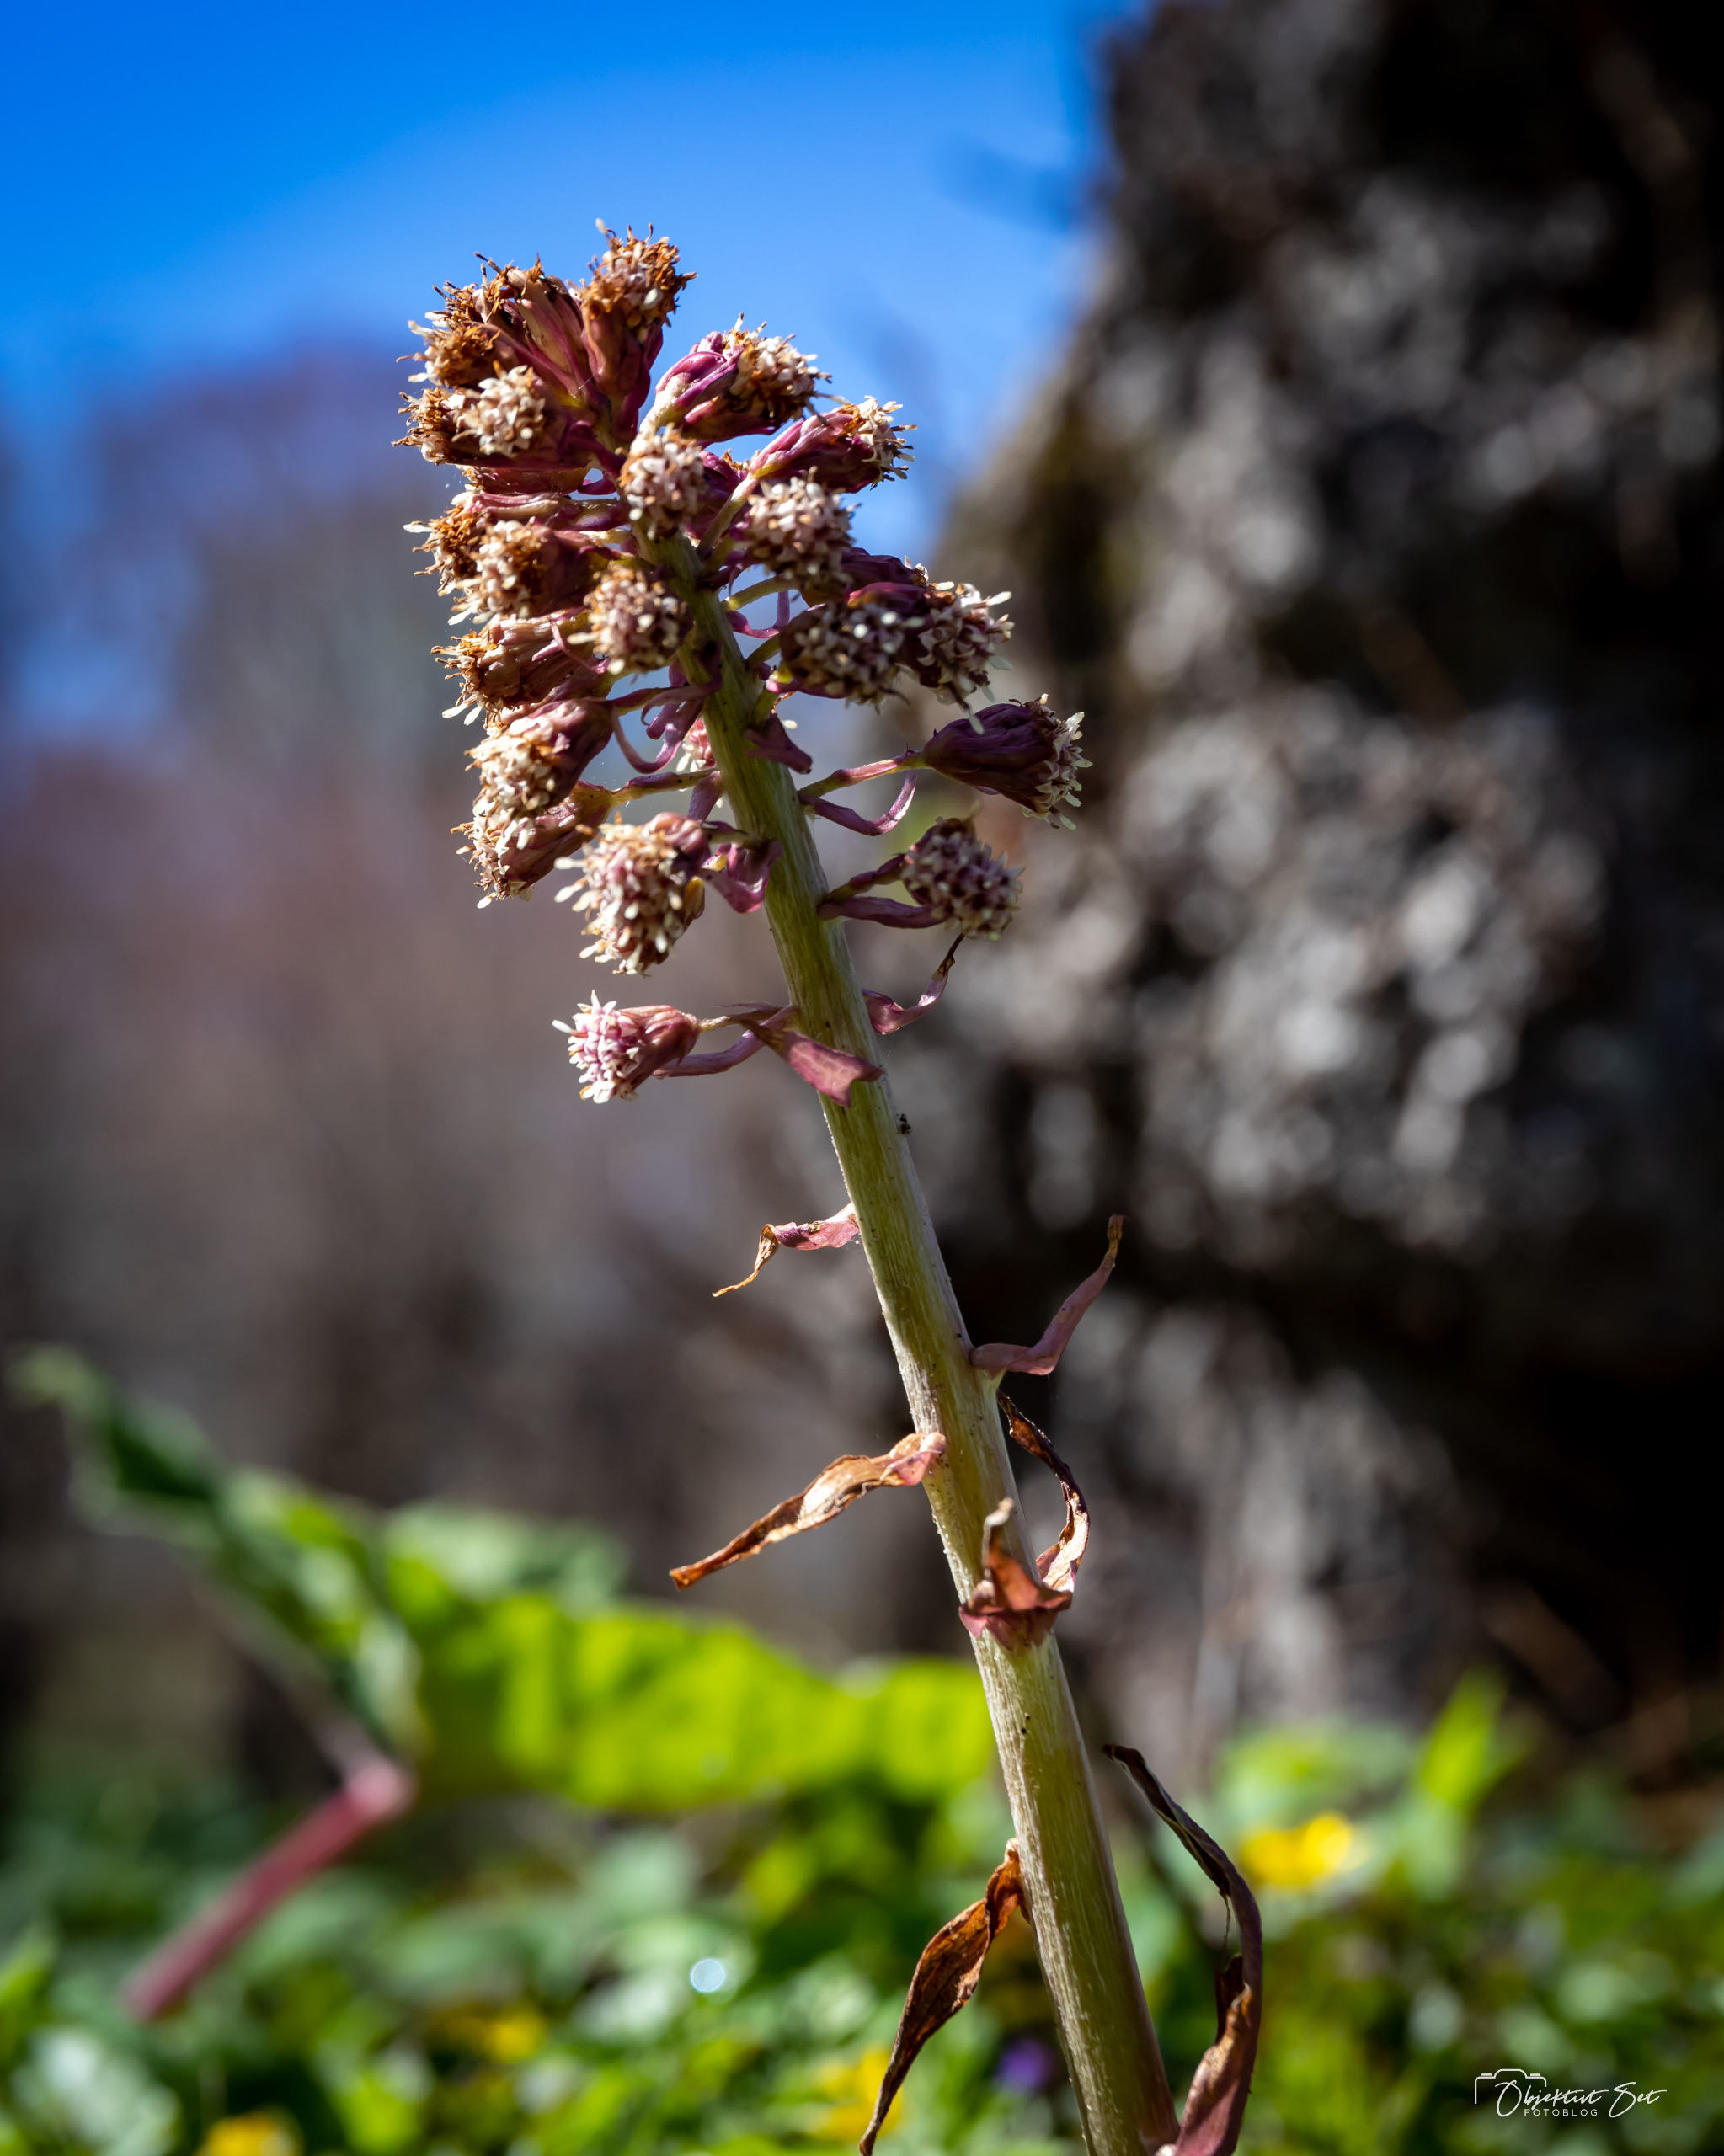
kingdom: Plantae
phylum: Tracheophyta
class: Magnoliopsida
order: Asterales
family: Asteraceae
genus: Petasites
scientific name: Petasites hybridus
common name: Rød hestehov
